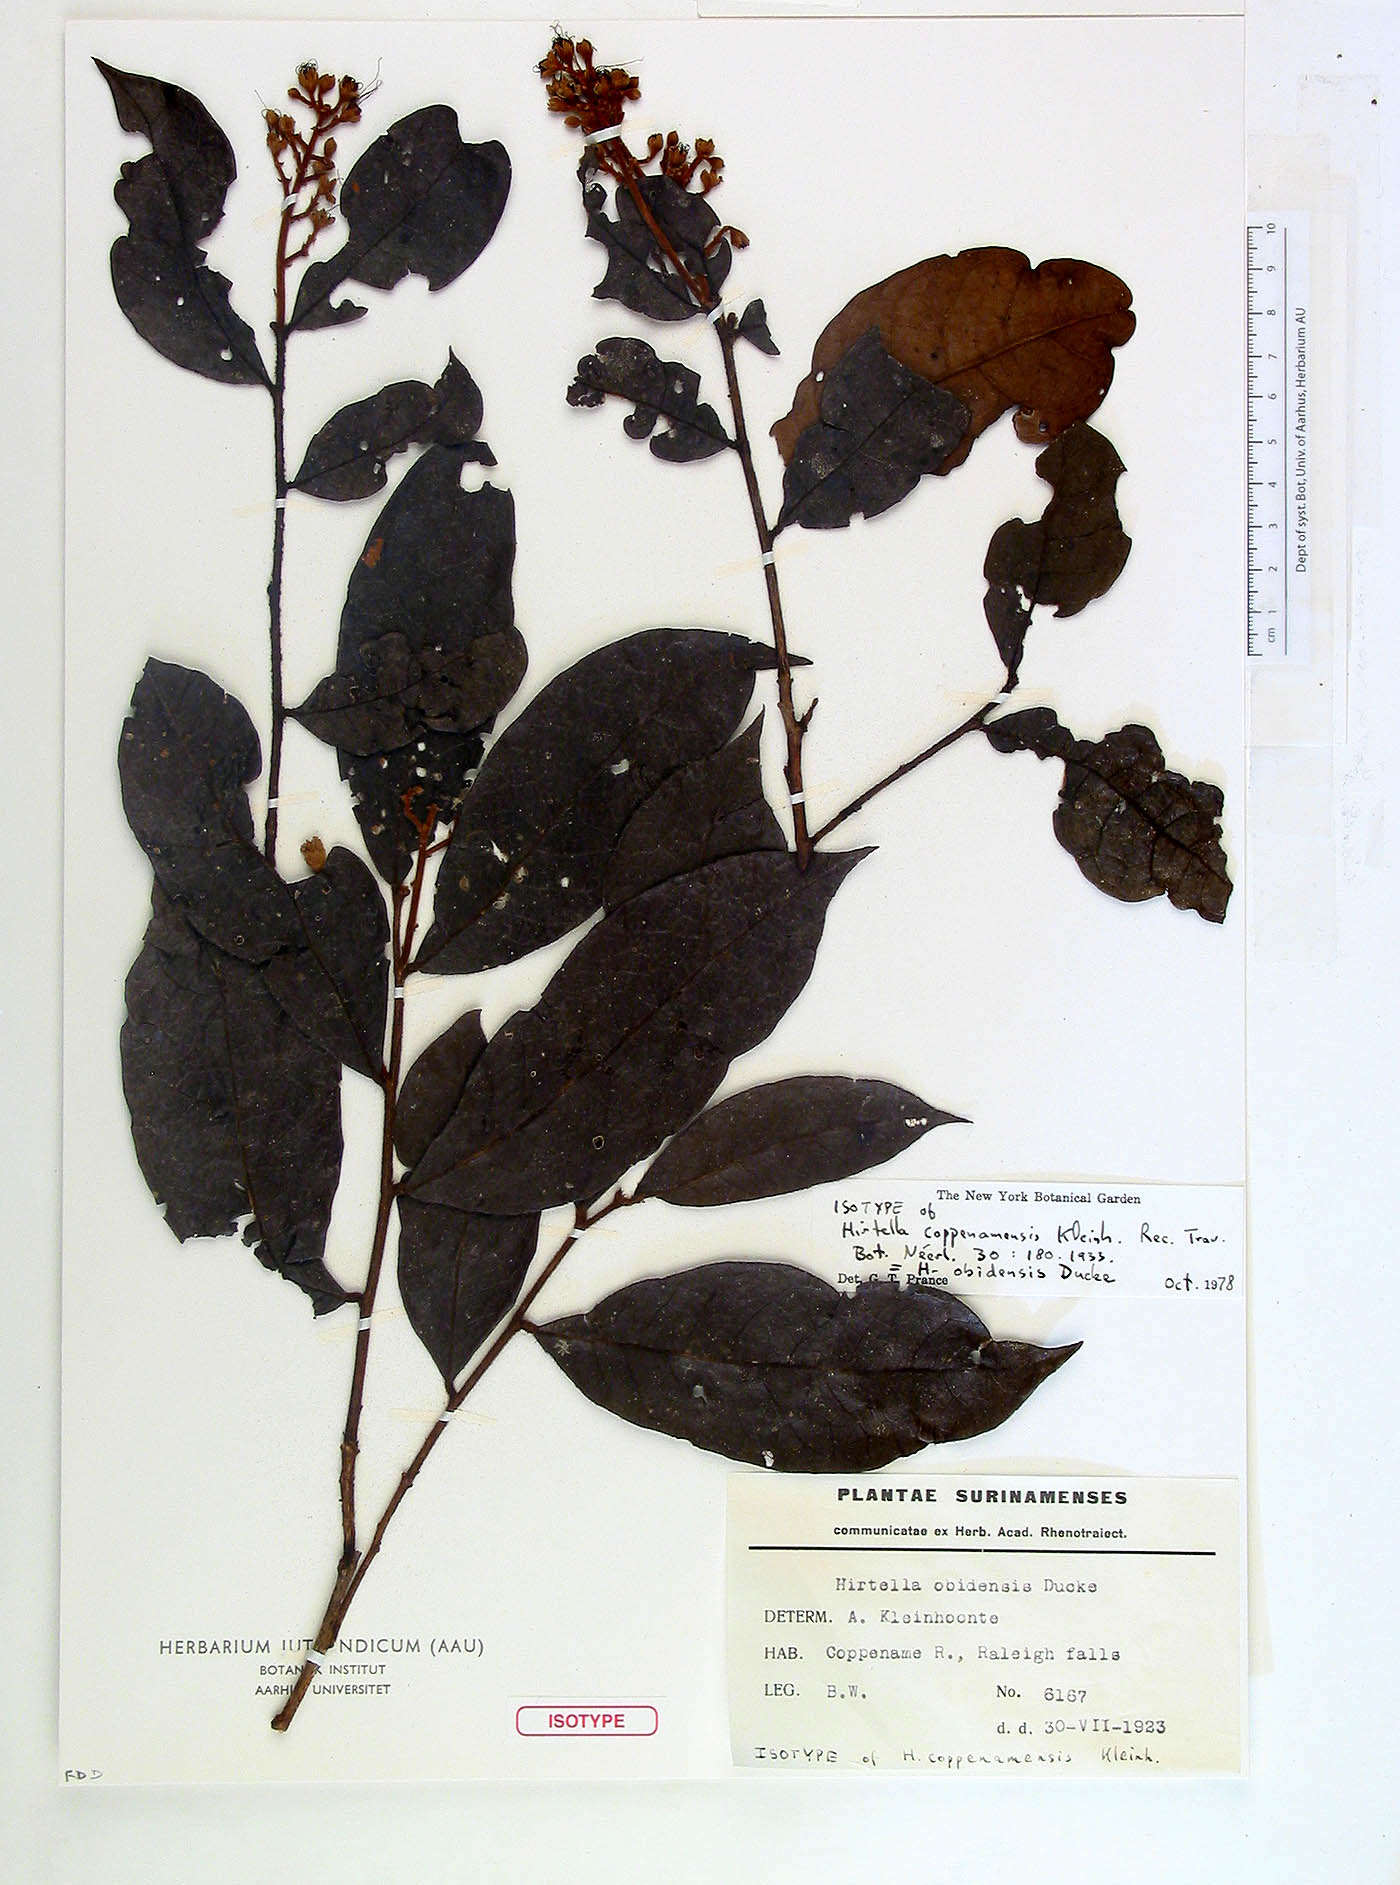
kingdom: Plantae
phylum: Tracheophyta
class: Magnoliopsida
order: Malpighiales
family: Chrysobalanaceae
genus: Hirtella
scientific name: Hirtella obidensis
